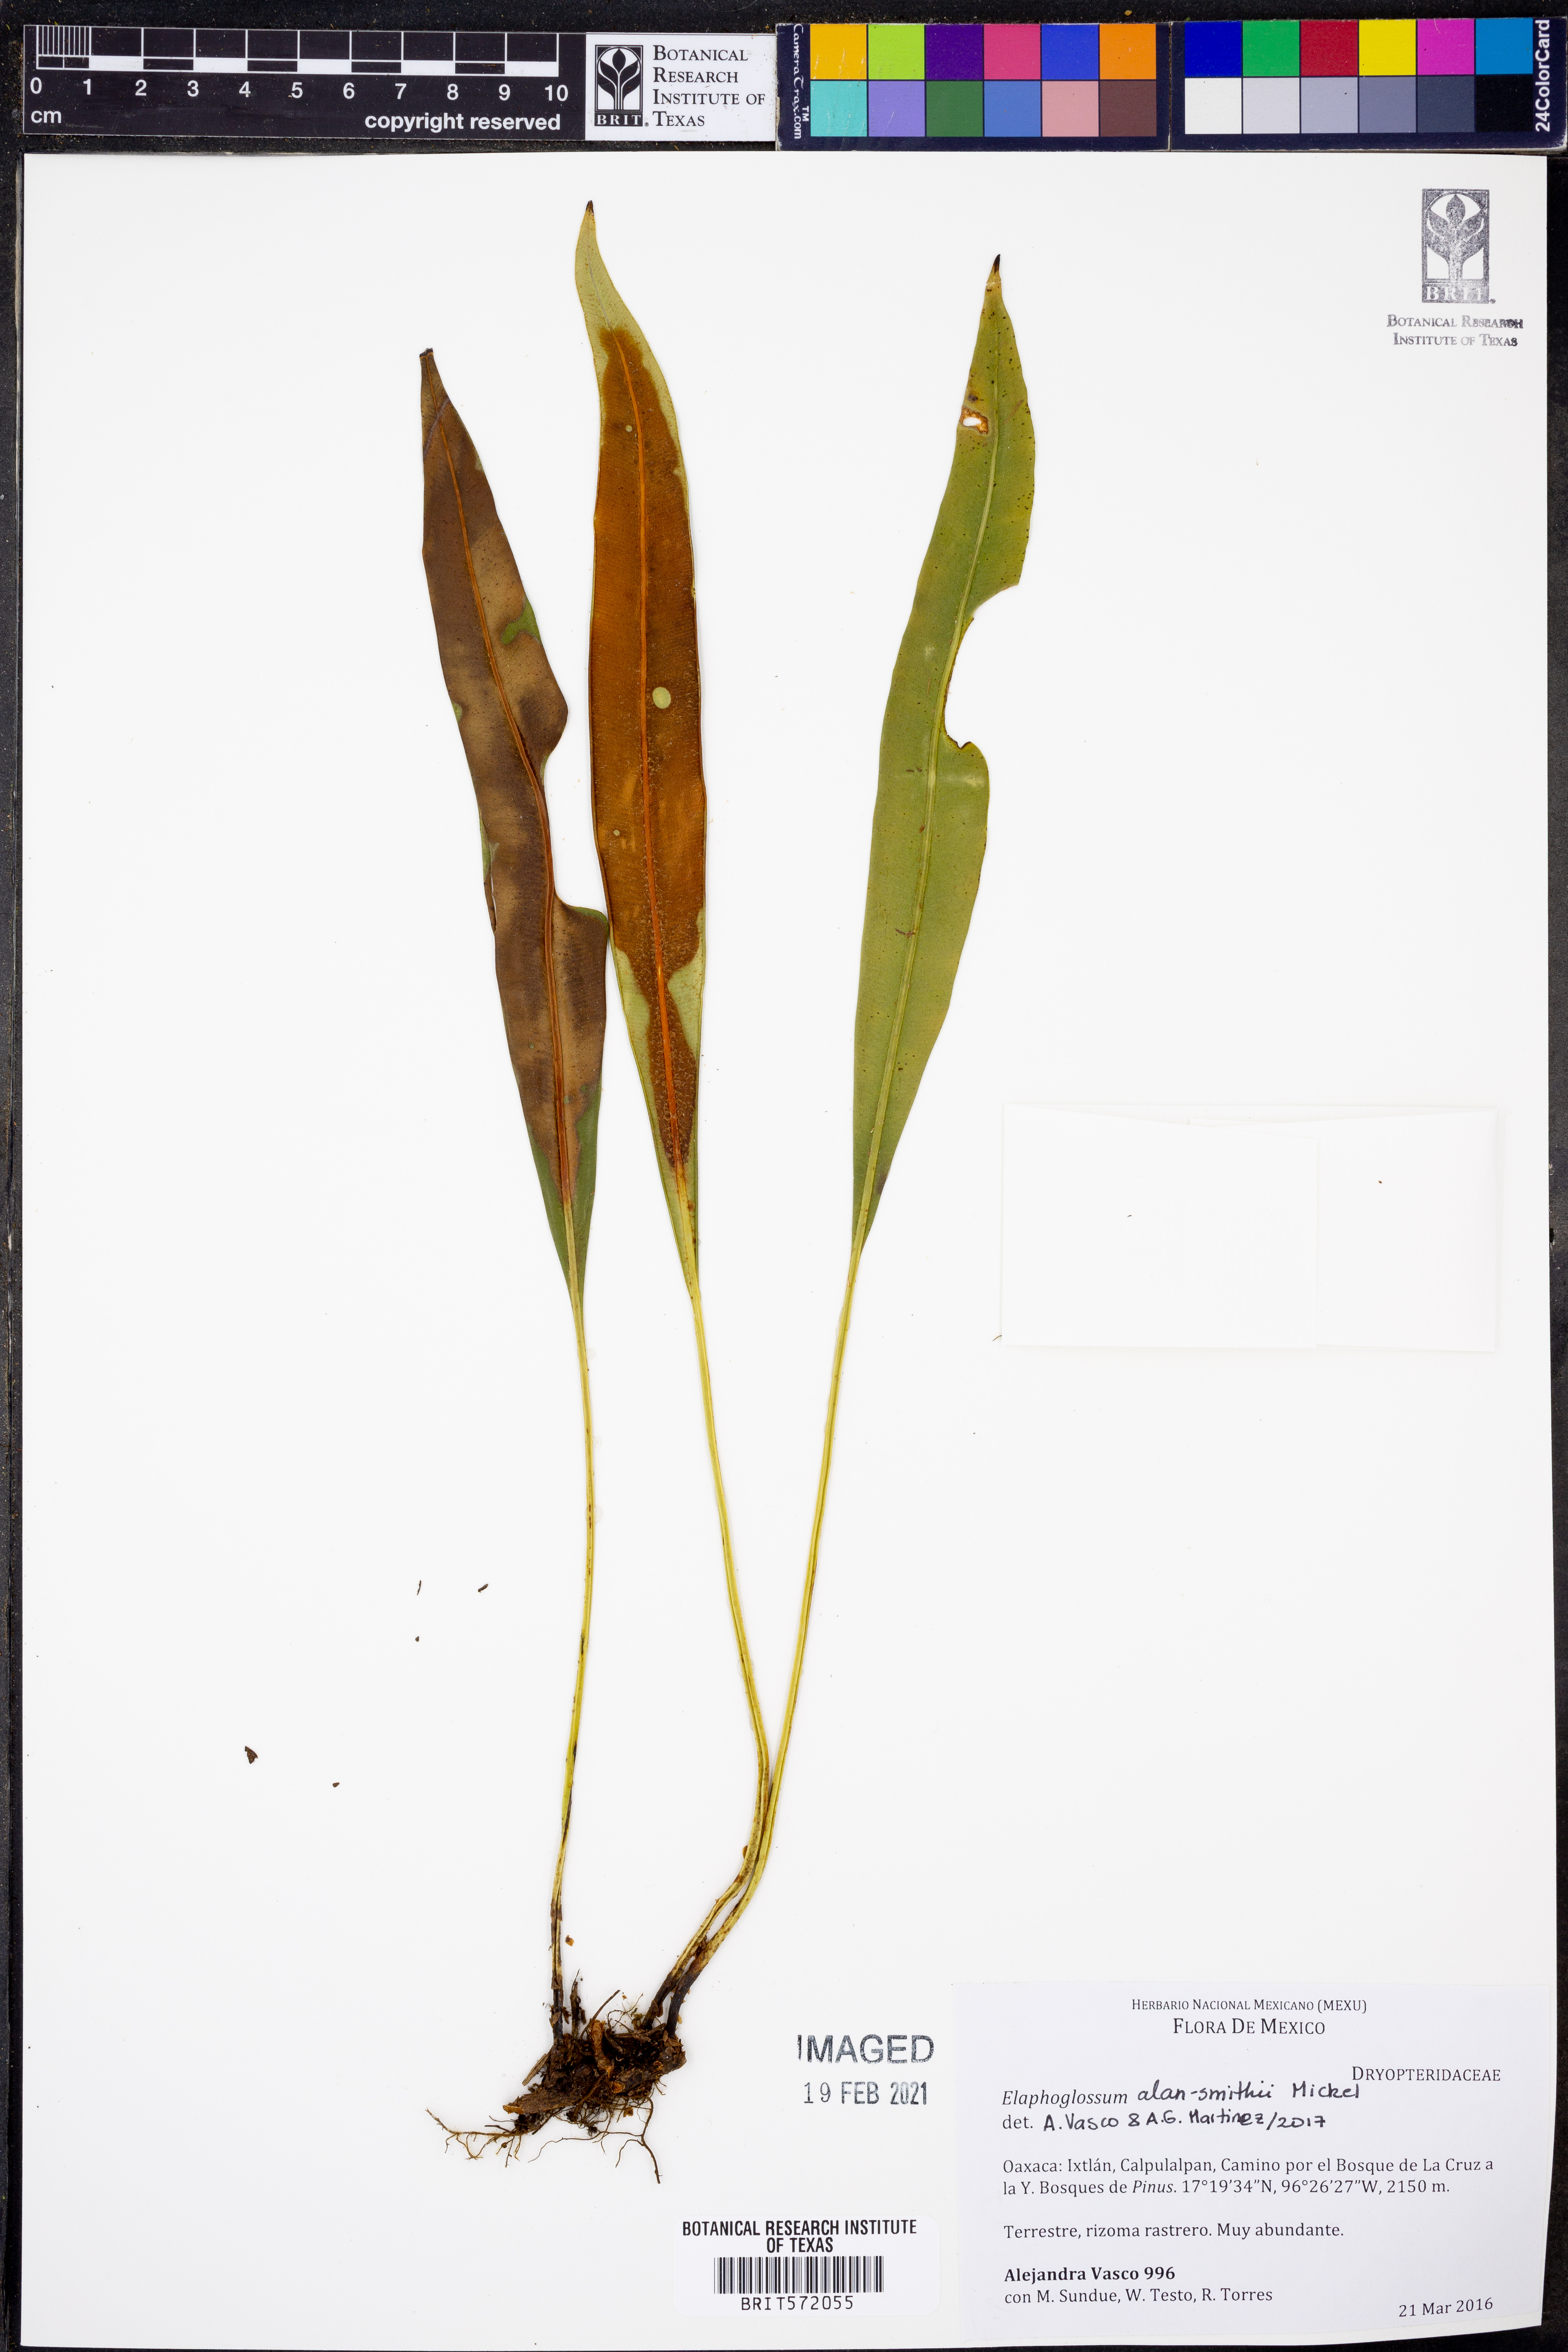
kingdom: Plantae
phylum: Tracheophyta
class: Polypodiopsida
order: Polypodiales
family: Dryopteridaceae
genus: Elaphoglossum
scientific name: Elaphoglossum alan-smithii
